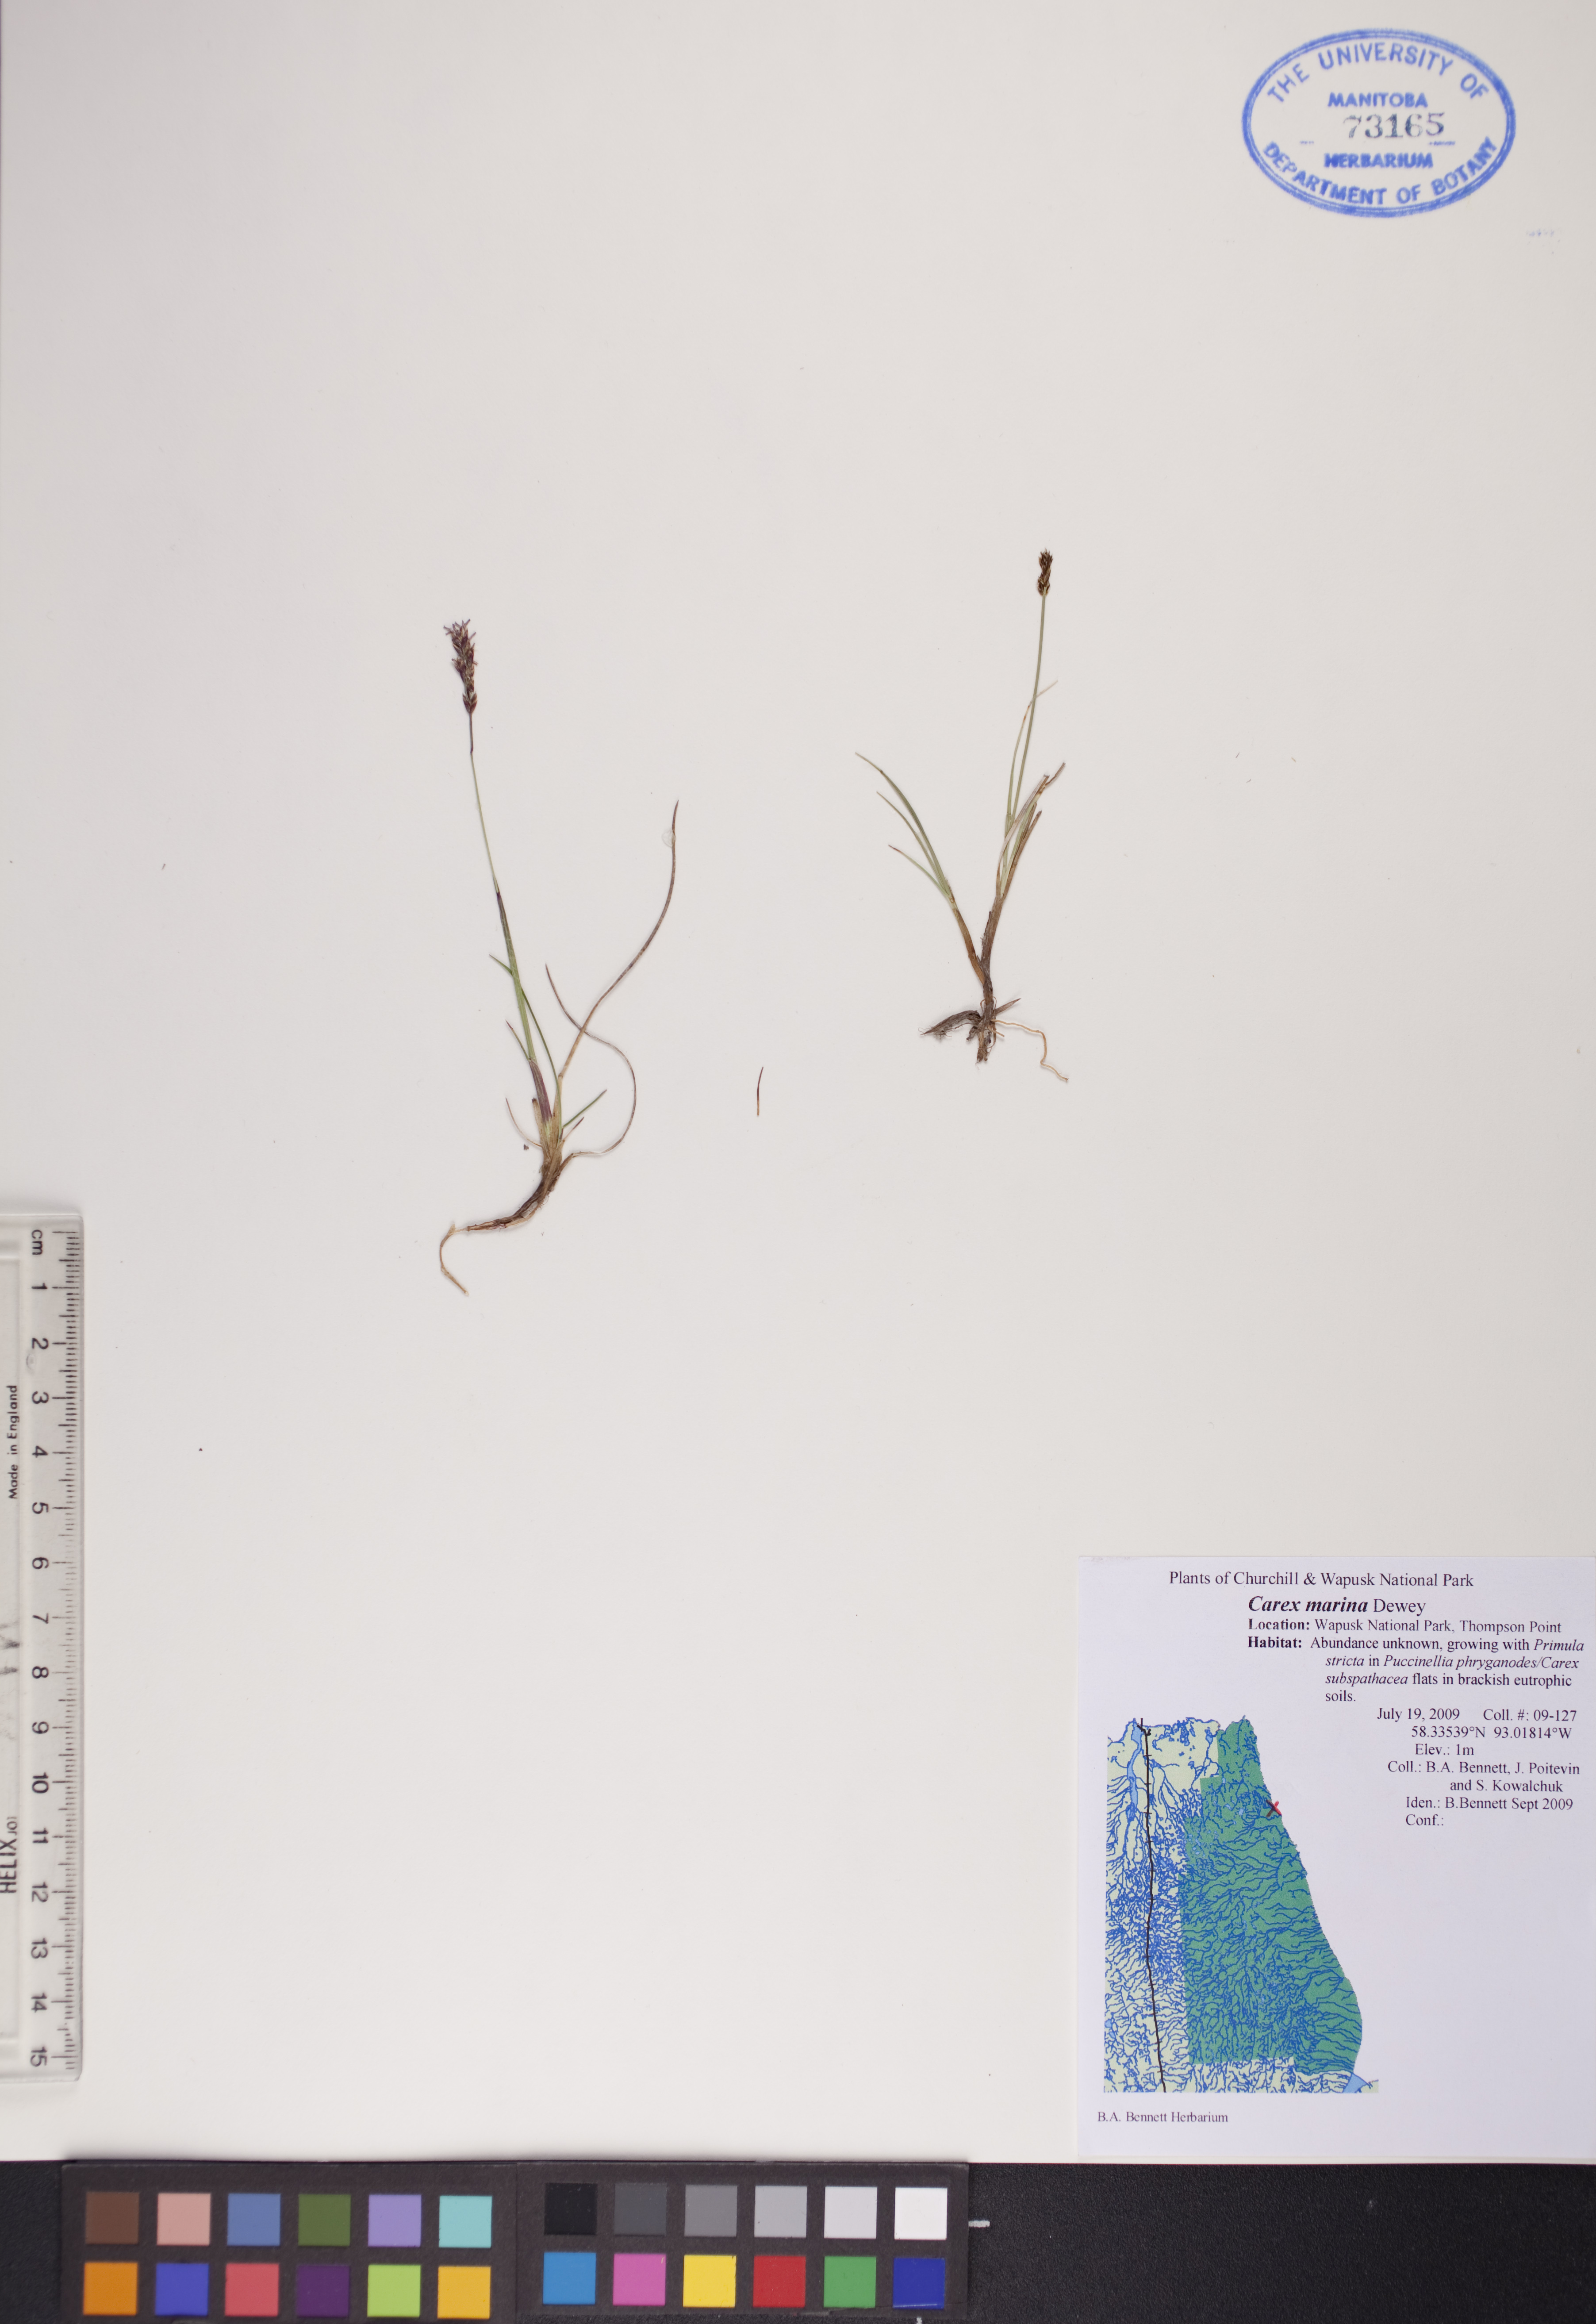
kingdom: Plantae
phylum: Tracheophyta
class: Liliopsida
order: Poales
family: Cyperaceae
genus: Carex
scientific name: Carex marina
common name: Seashore sedge
